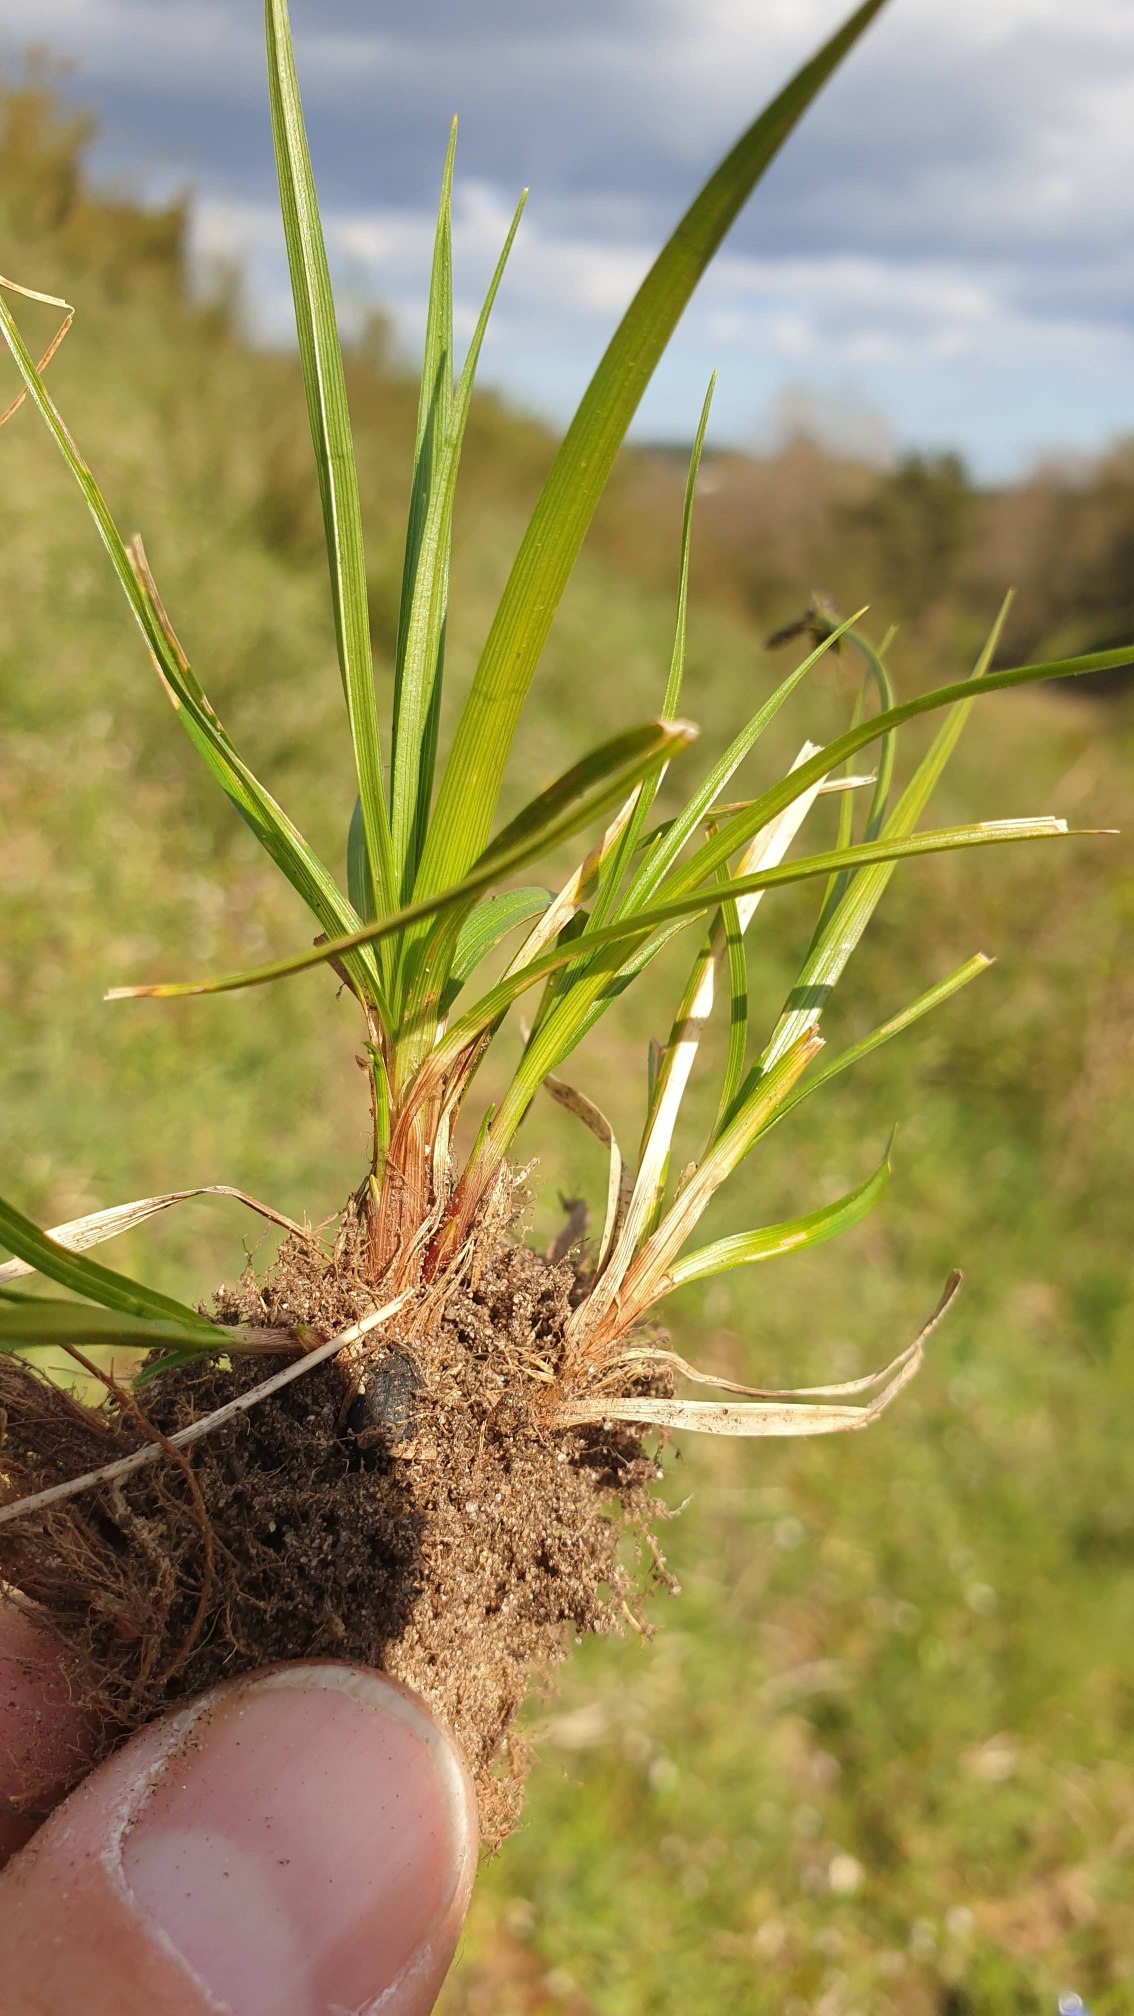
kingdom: Plantae
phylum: Tracheophyta
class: Liliopsida
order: Poales
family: Cyperaceae
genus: Carex
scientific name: Carex caryophyllea
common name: Vår-star
